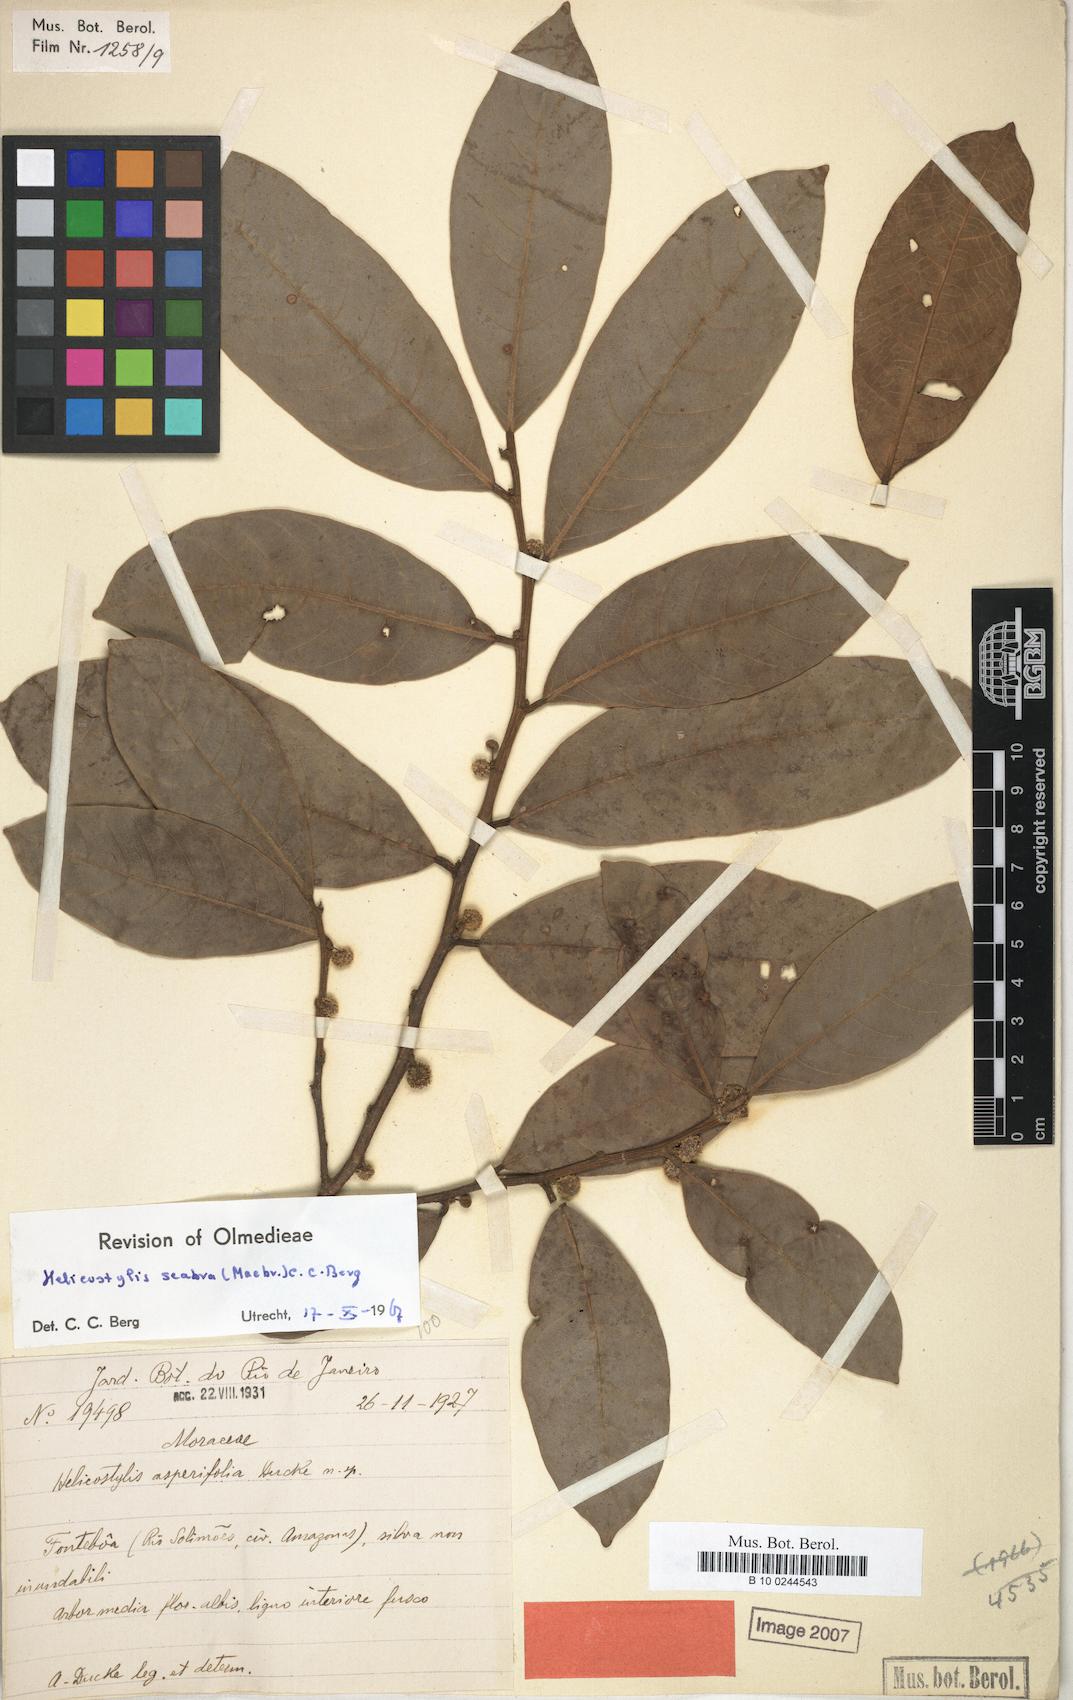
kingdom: Plantae
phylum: Tracheophyta
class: Magnoliopsida
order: Rosales
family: Moraceae
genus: Helicostylis
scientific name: Helicostylis scabra
